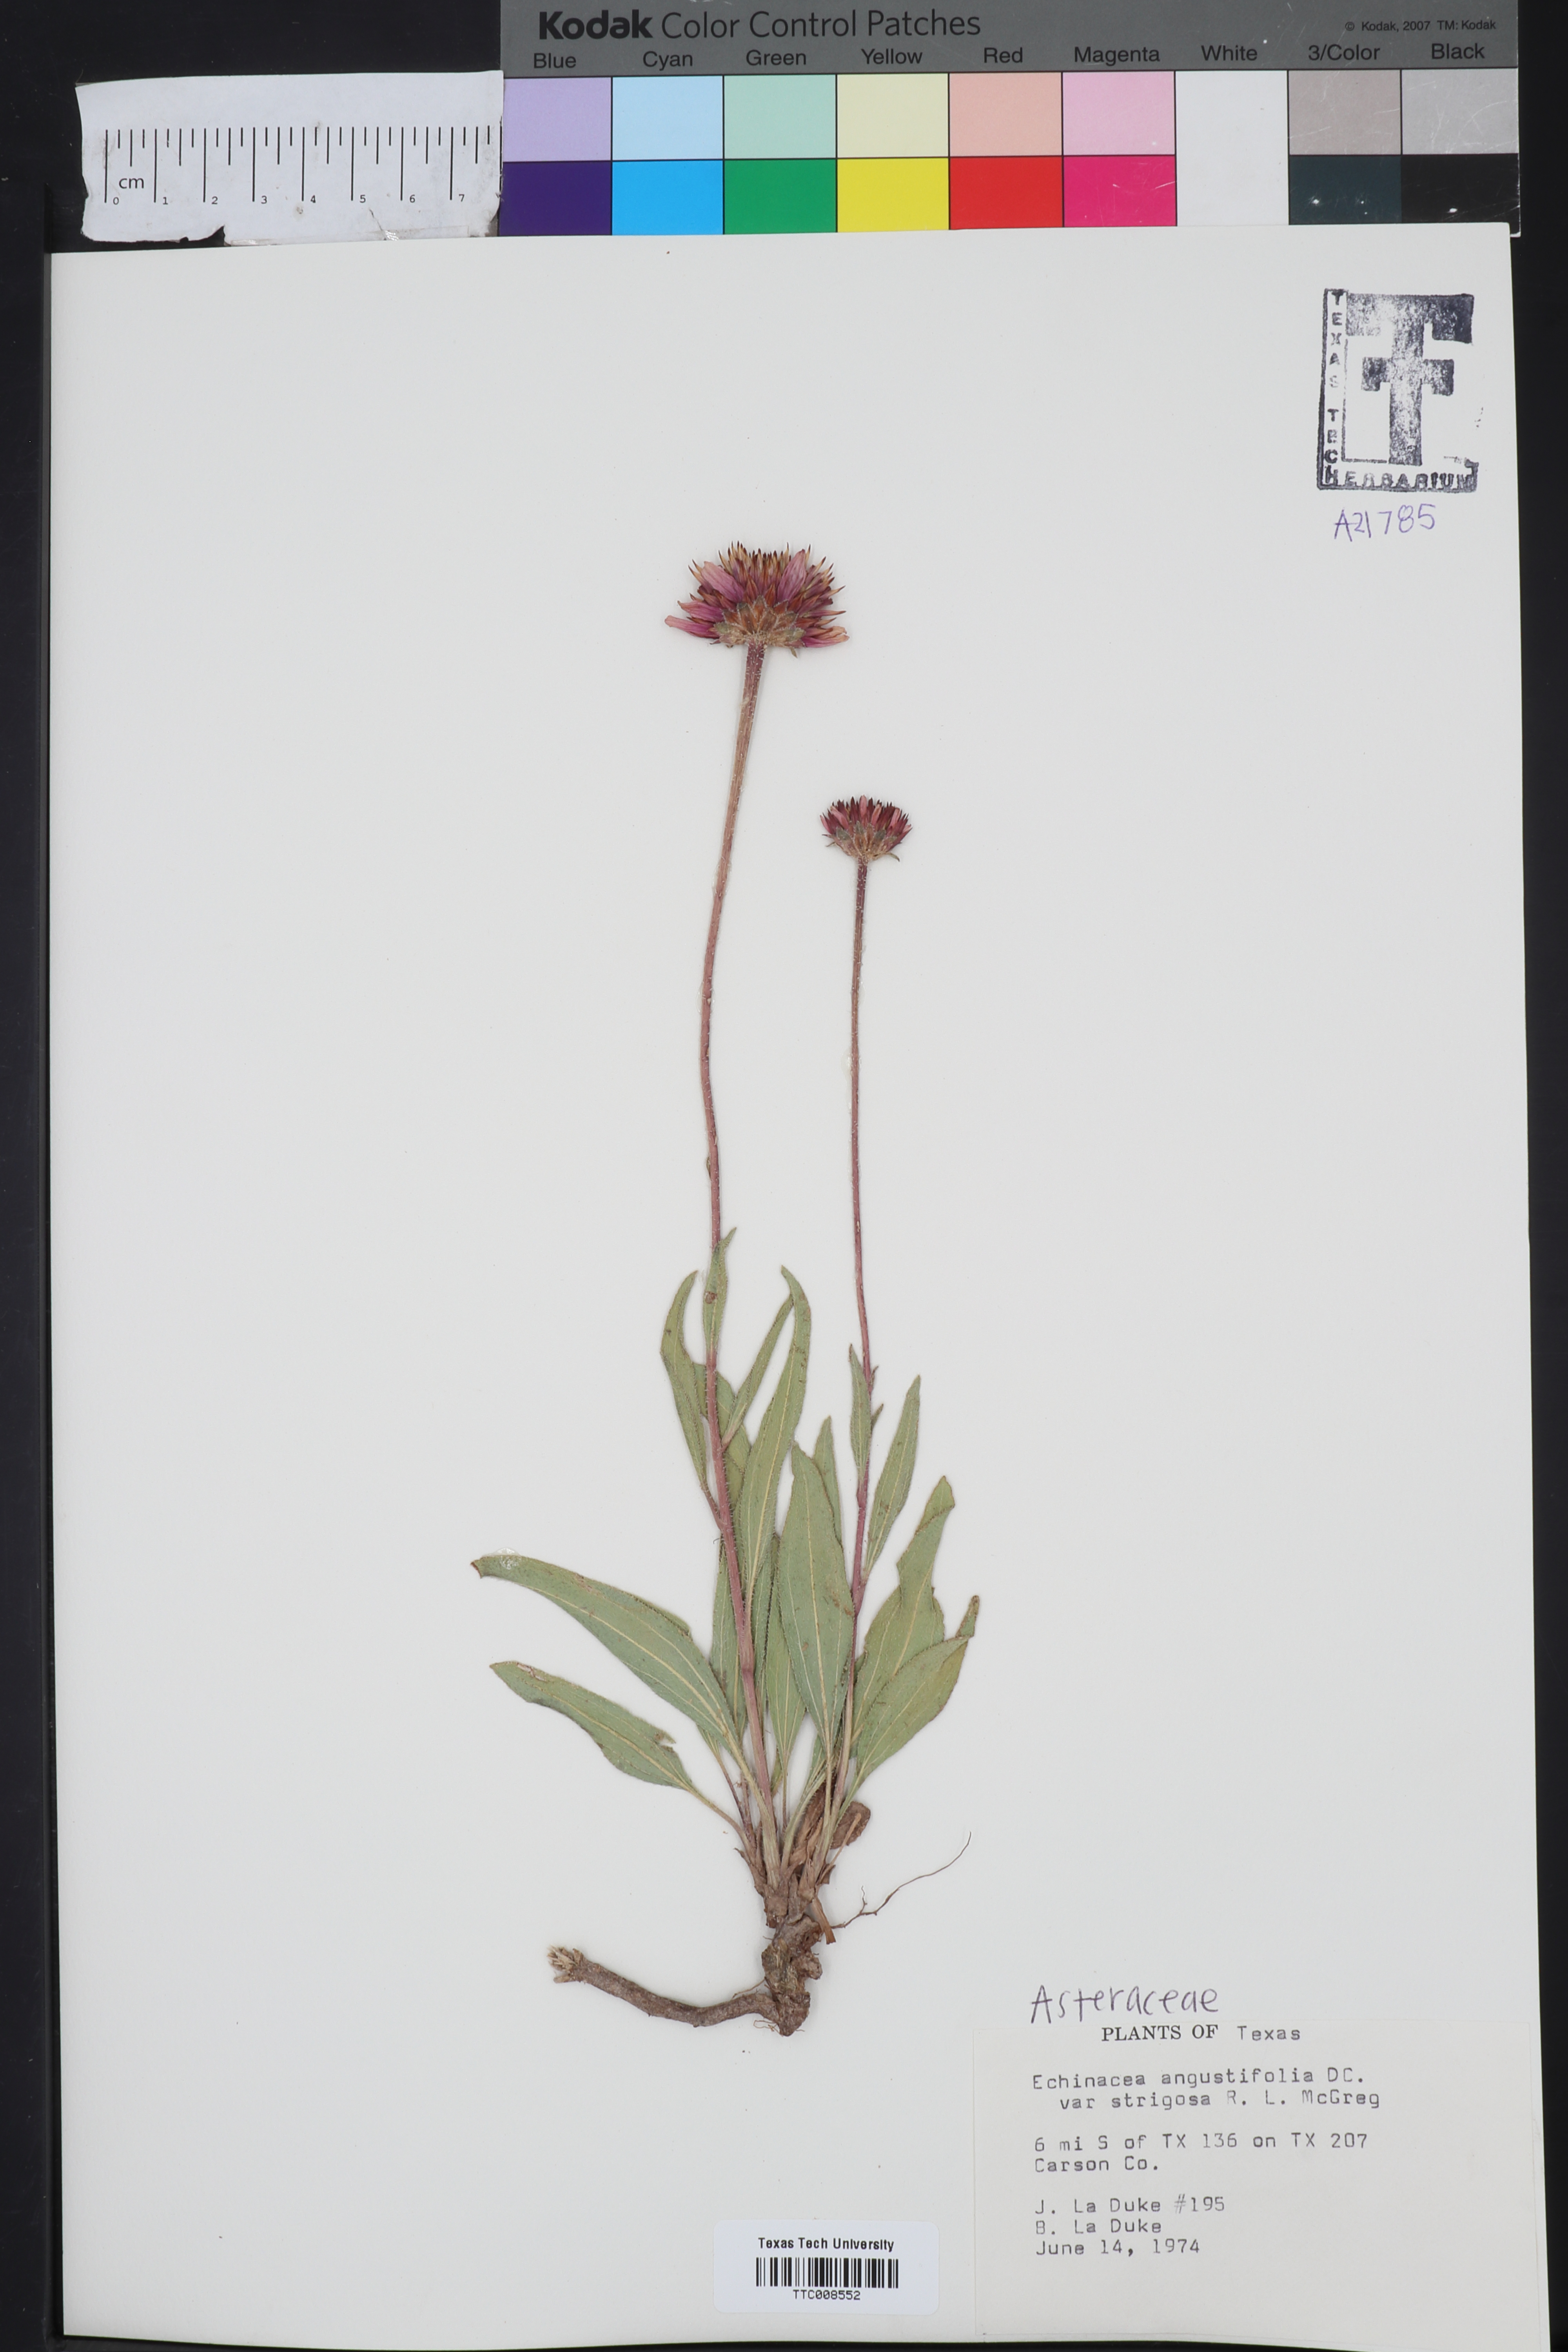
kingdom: Plantae
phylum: Tracheophyta
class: Magnoliopsida
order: Asterales
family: Asteraceae
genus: Echinacea
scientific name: Echinacea angustifolia
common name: Black-sampson echinacea
